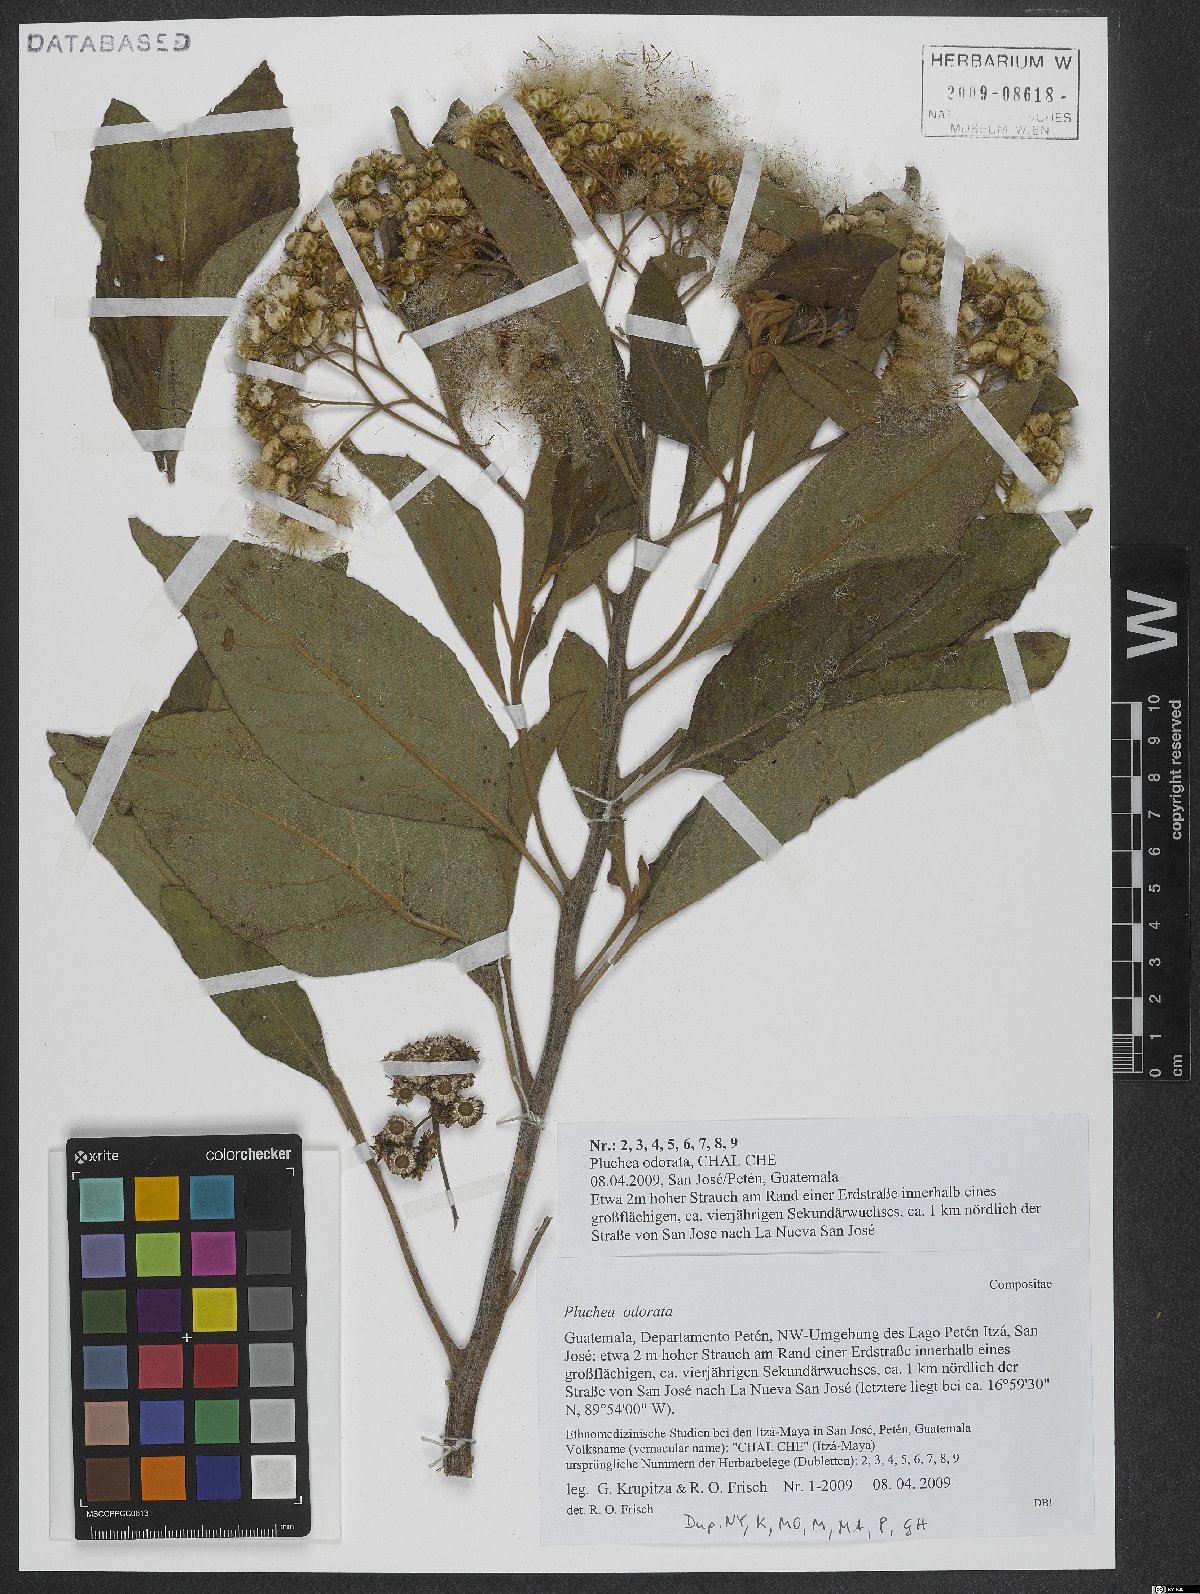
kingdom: Plantae
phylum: Tracheophyta
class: Magnoliopsida
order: Asterales
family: Asteraceae
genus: Pluchea
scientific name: Pluchea odorata
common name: Saltmarsh fleabane
